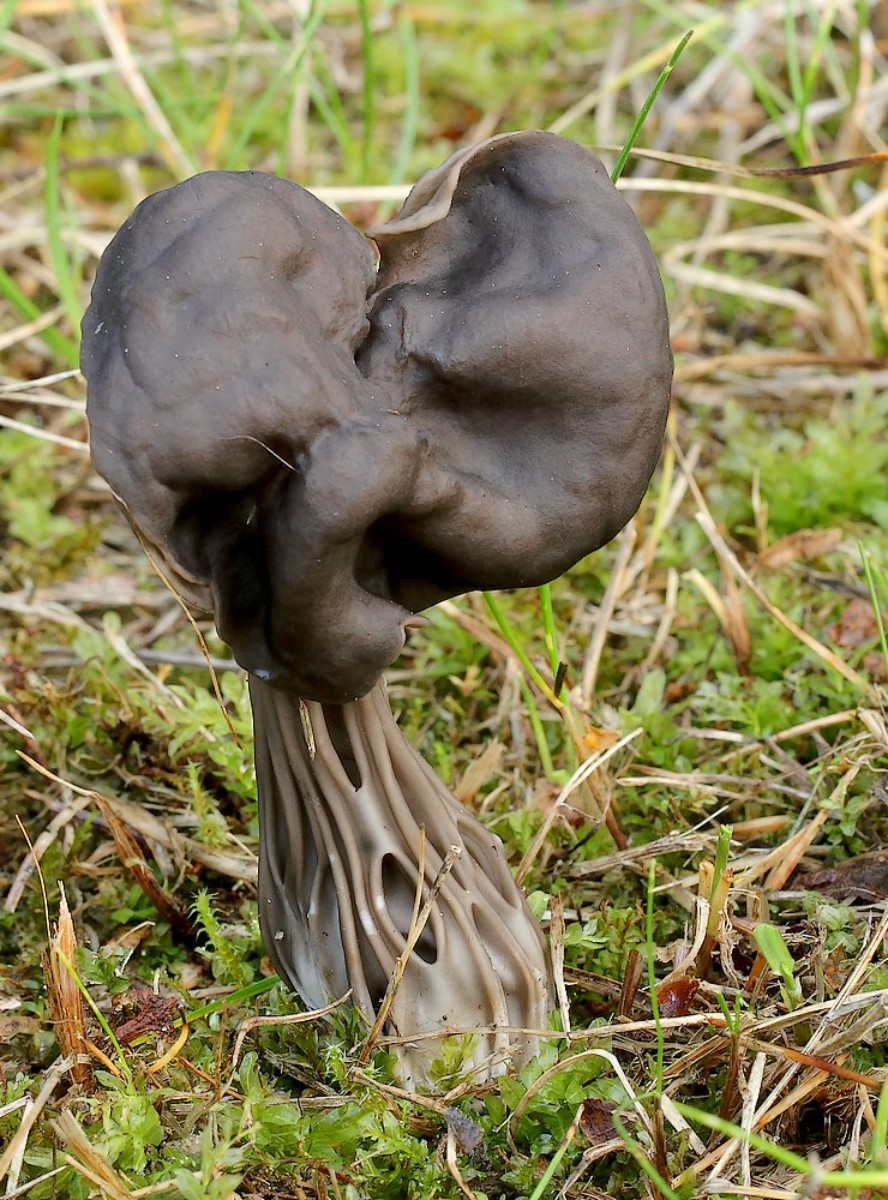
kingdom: Fungi
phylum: Ascomycota
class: Pezizomycetes
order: Pezizales
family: Helvellaceae
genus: Helvella
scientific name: Helvella lacunosa
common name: grubet foldhat
